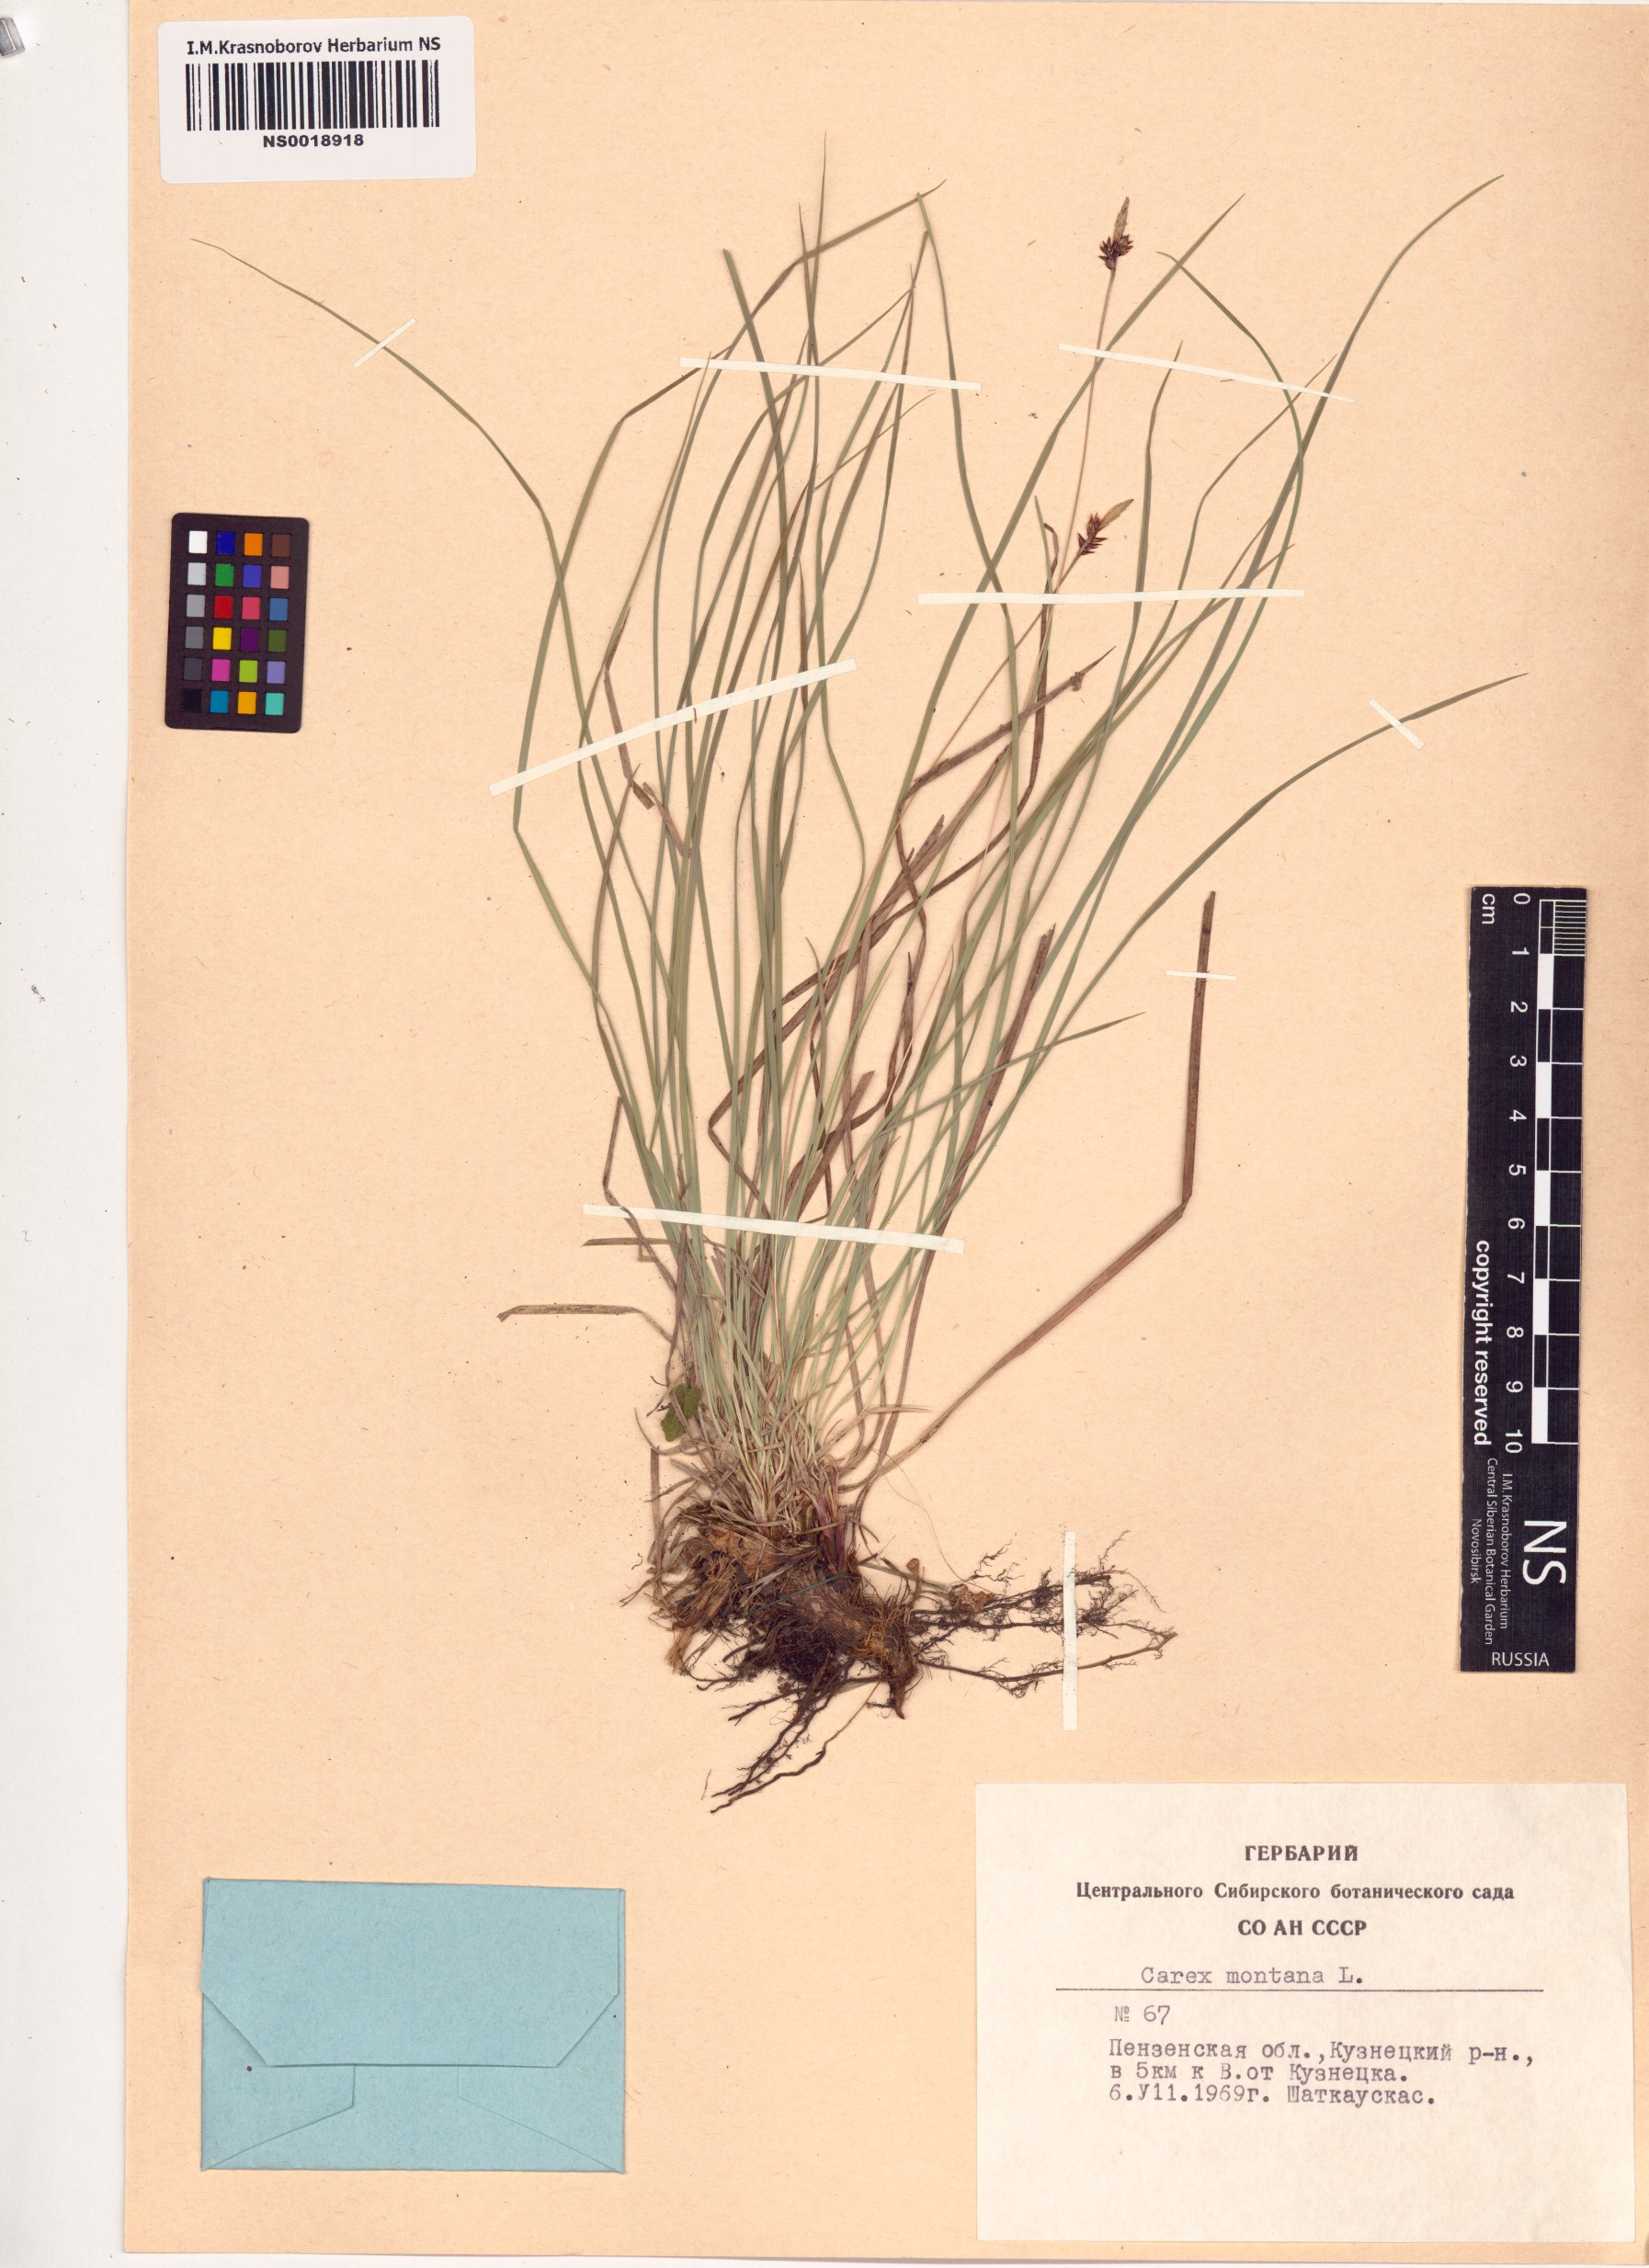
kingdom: Plantae
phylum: Tracheophyta
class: Liliopsida
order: Poales
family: Cyperaceae
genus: Carex
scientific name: Carex montana
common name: Soft-leaved sedge
